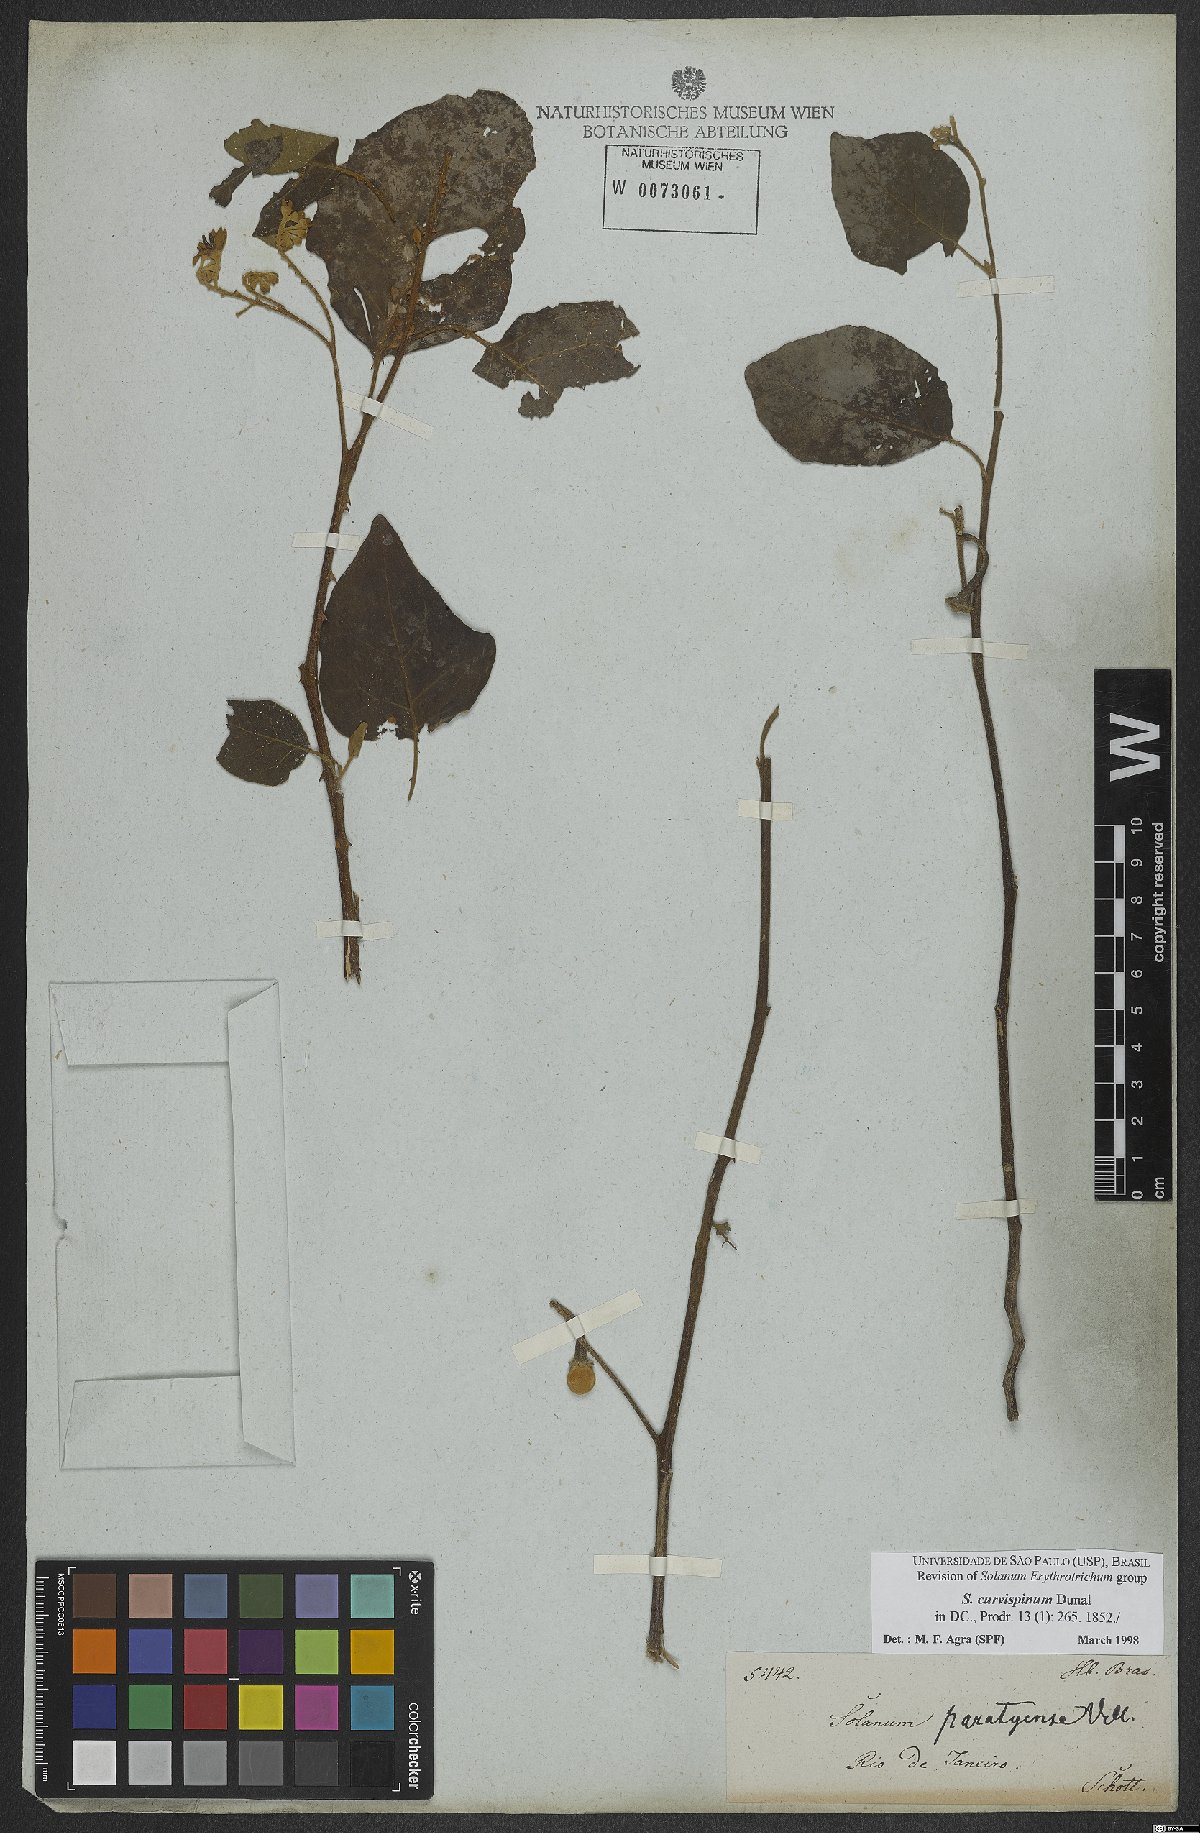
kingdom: Plantae
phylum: Tracheophyta
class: Magnoliopsida
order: Solanales
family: Solanaceae
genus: Solanum
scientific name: Solanum jussiaei
